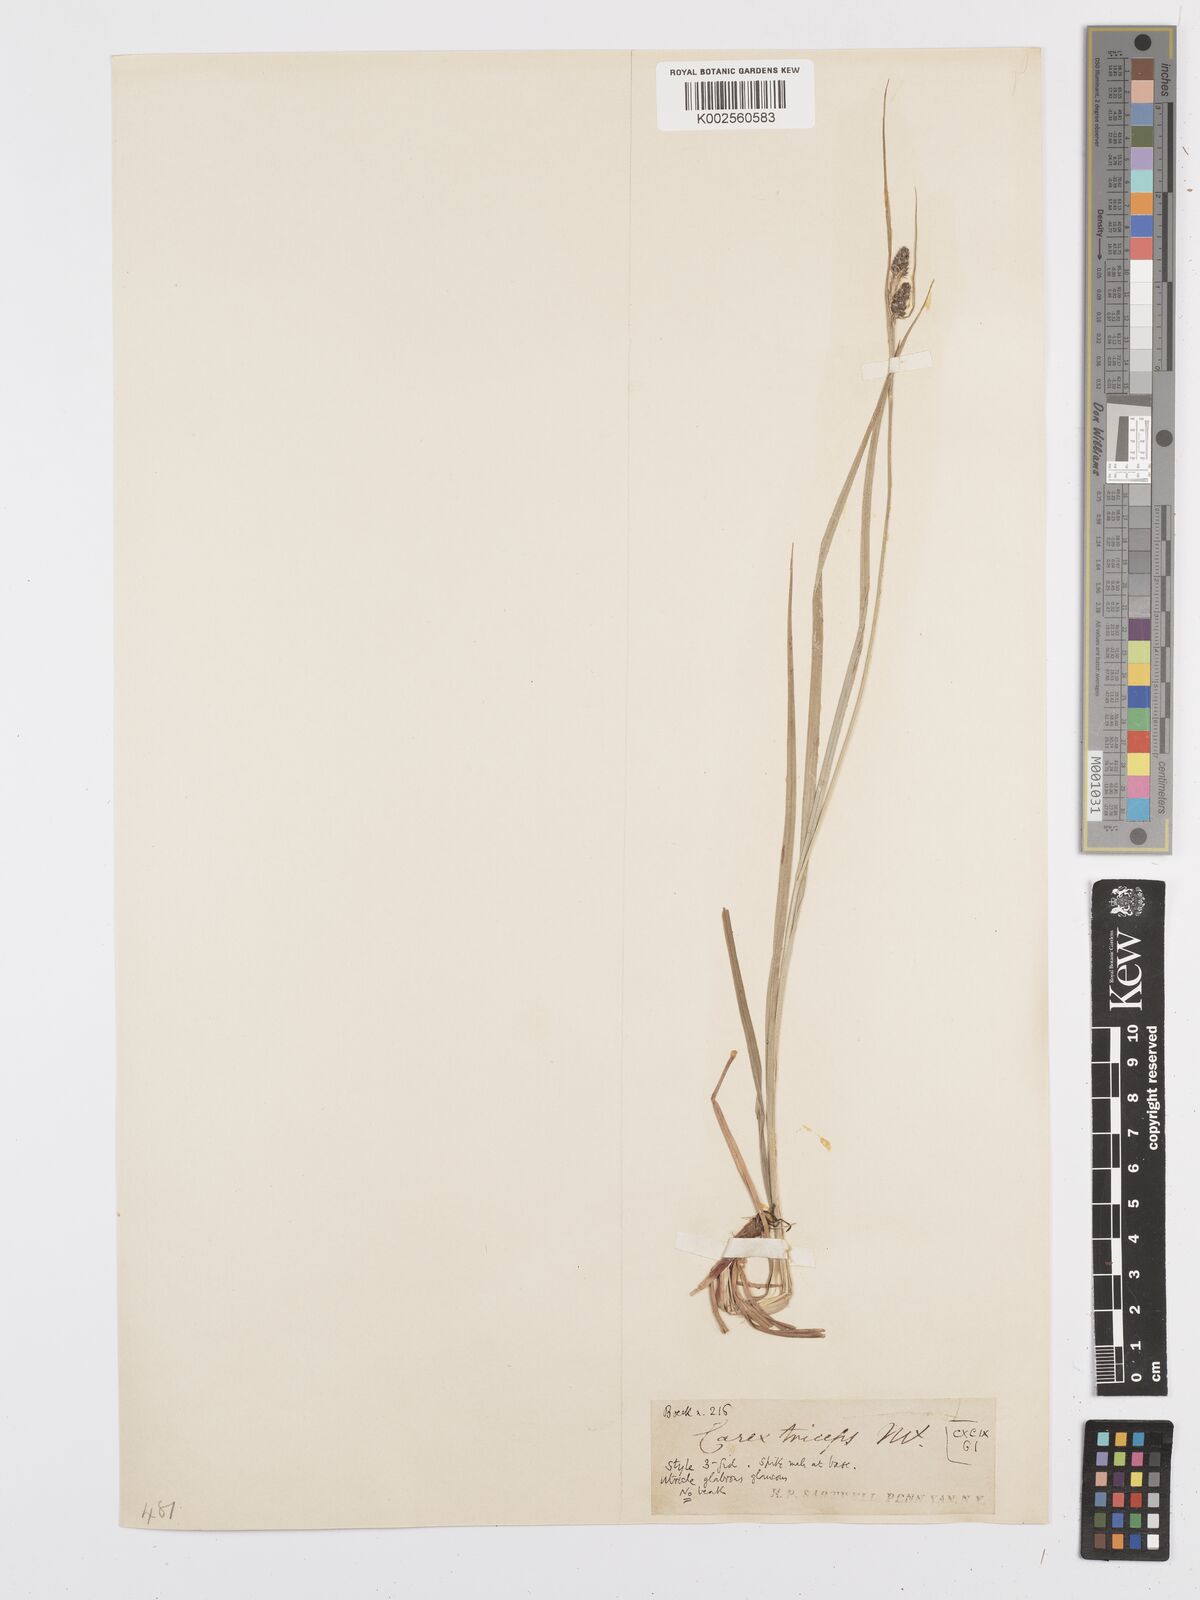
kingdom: Plantae
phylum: Tracheophyta
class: Liliopsida
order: Poales
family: Cyperaceae
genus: Carex
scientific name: Carex complanata
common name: Hirsute sedge
